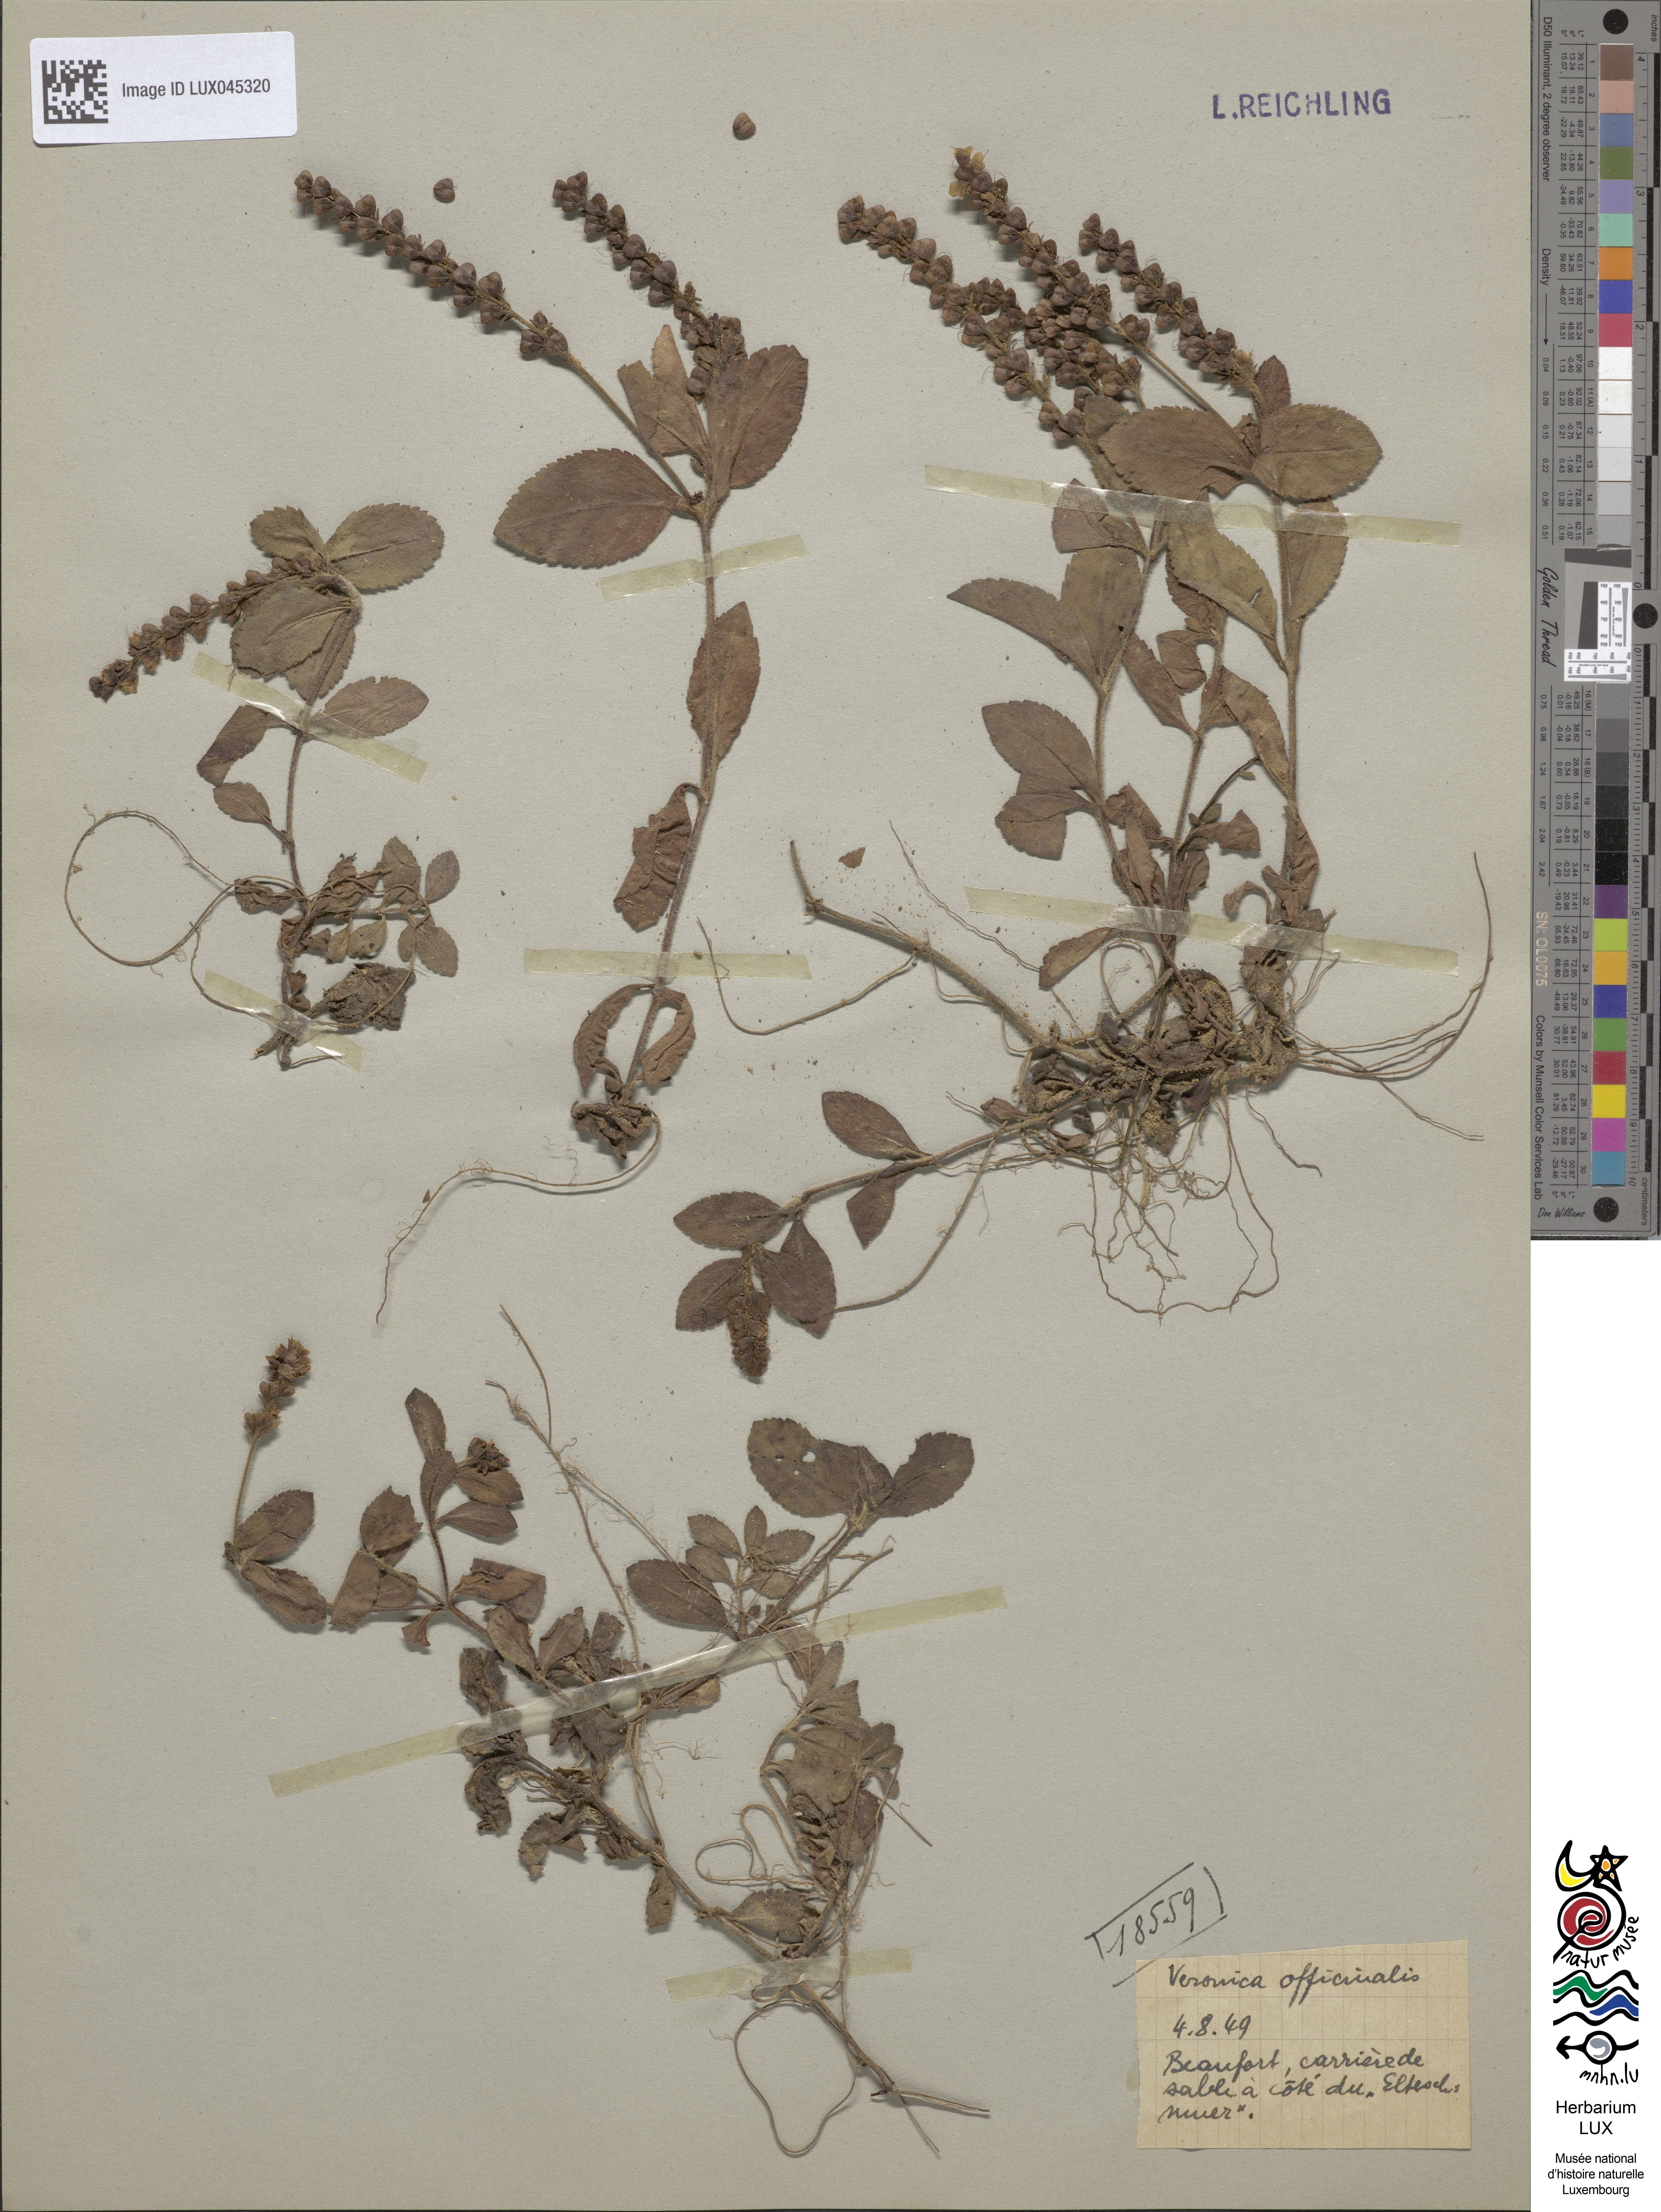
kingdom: Plantae
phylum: Tracheophyta
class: Magnoliopsida
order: Lamiales
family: Plantaginaceae
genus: Veronica
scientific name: Veronica officinalis
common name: Common speedwell
